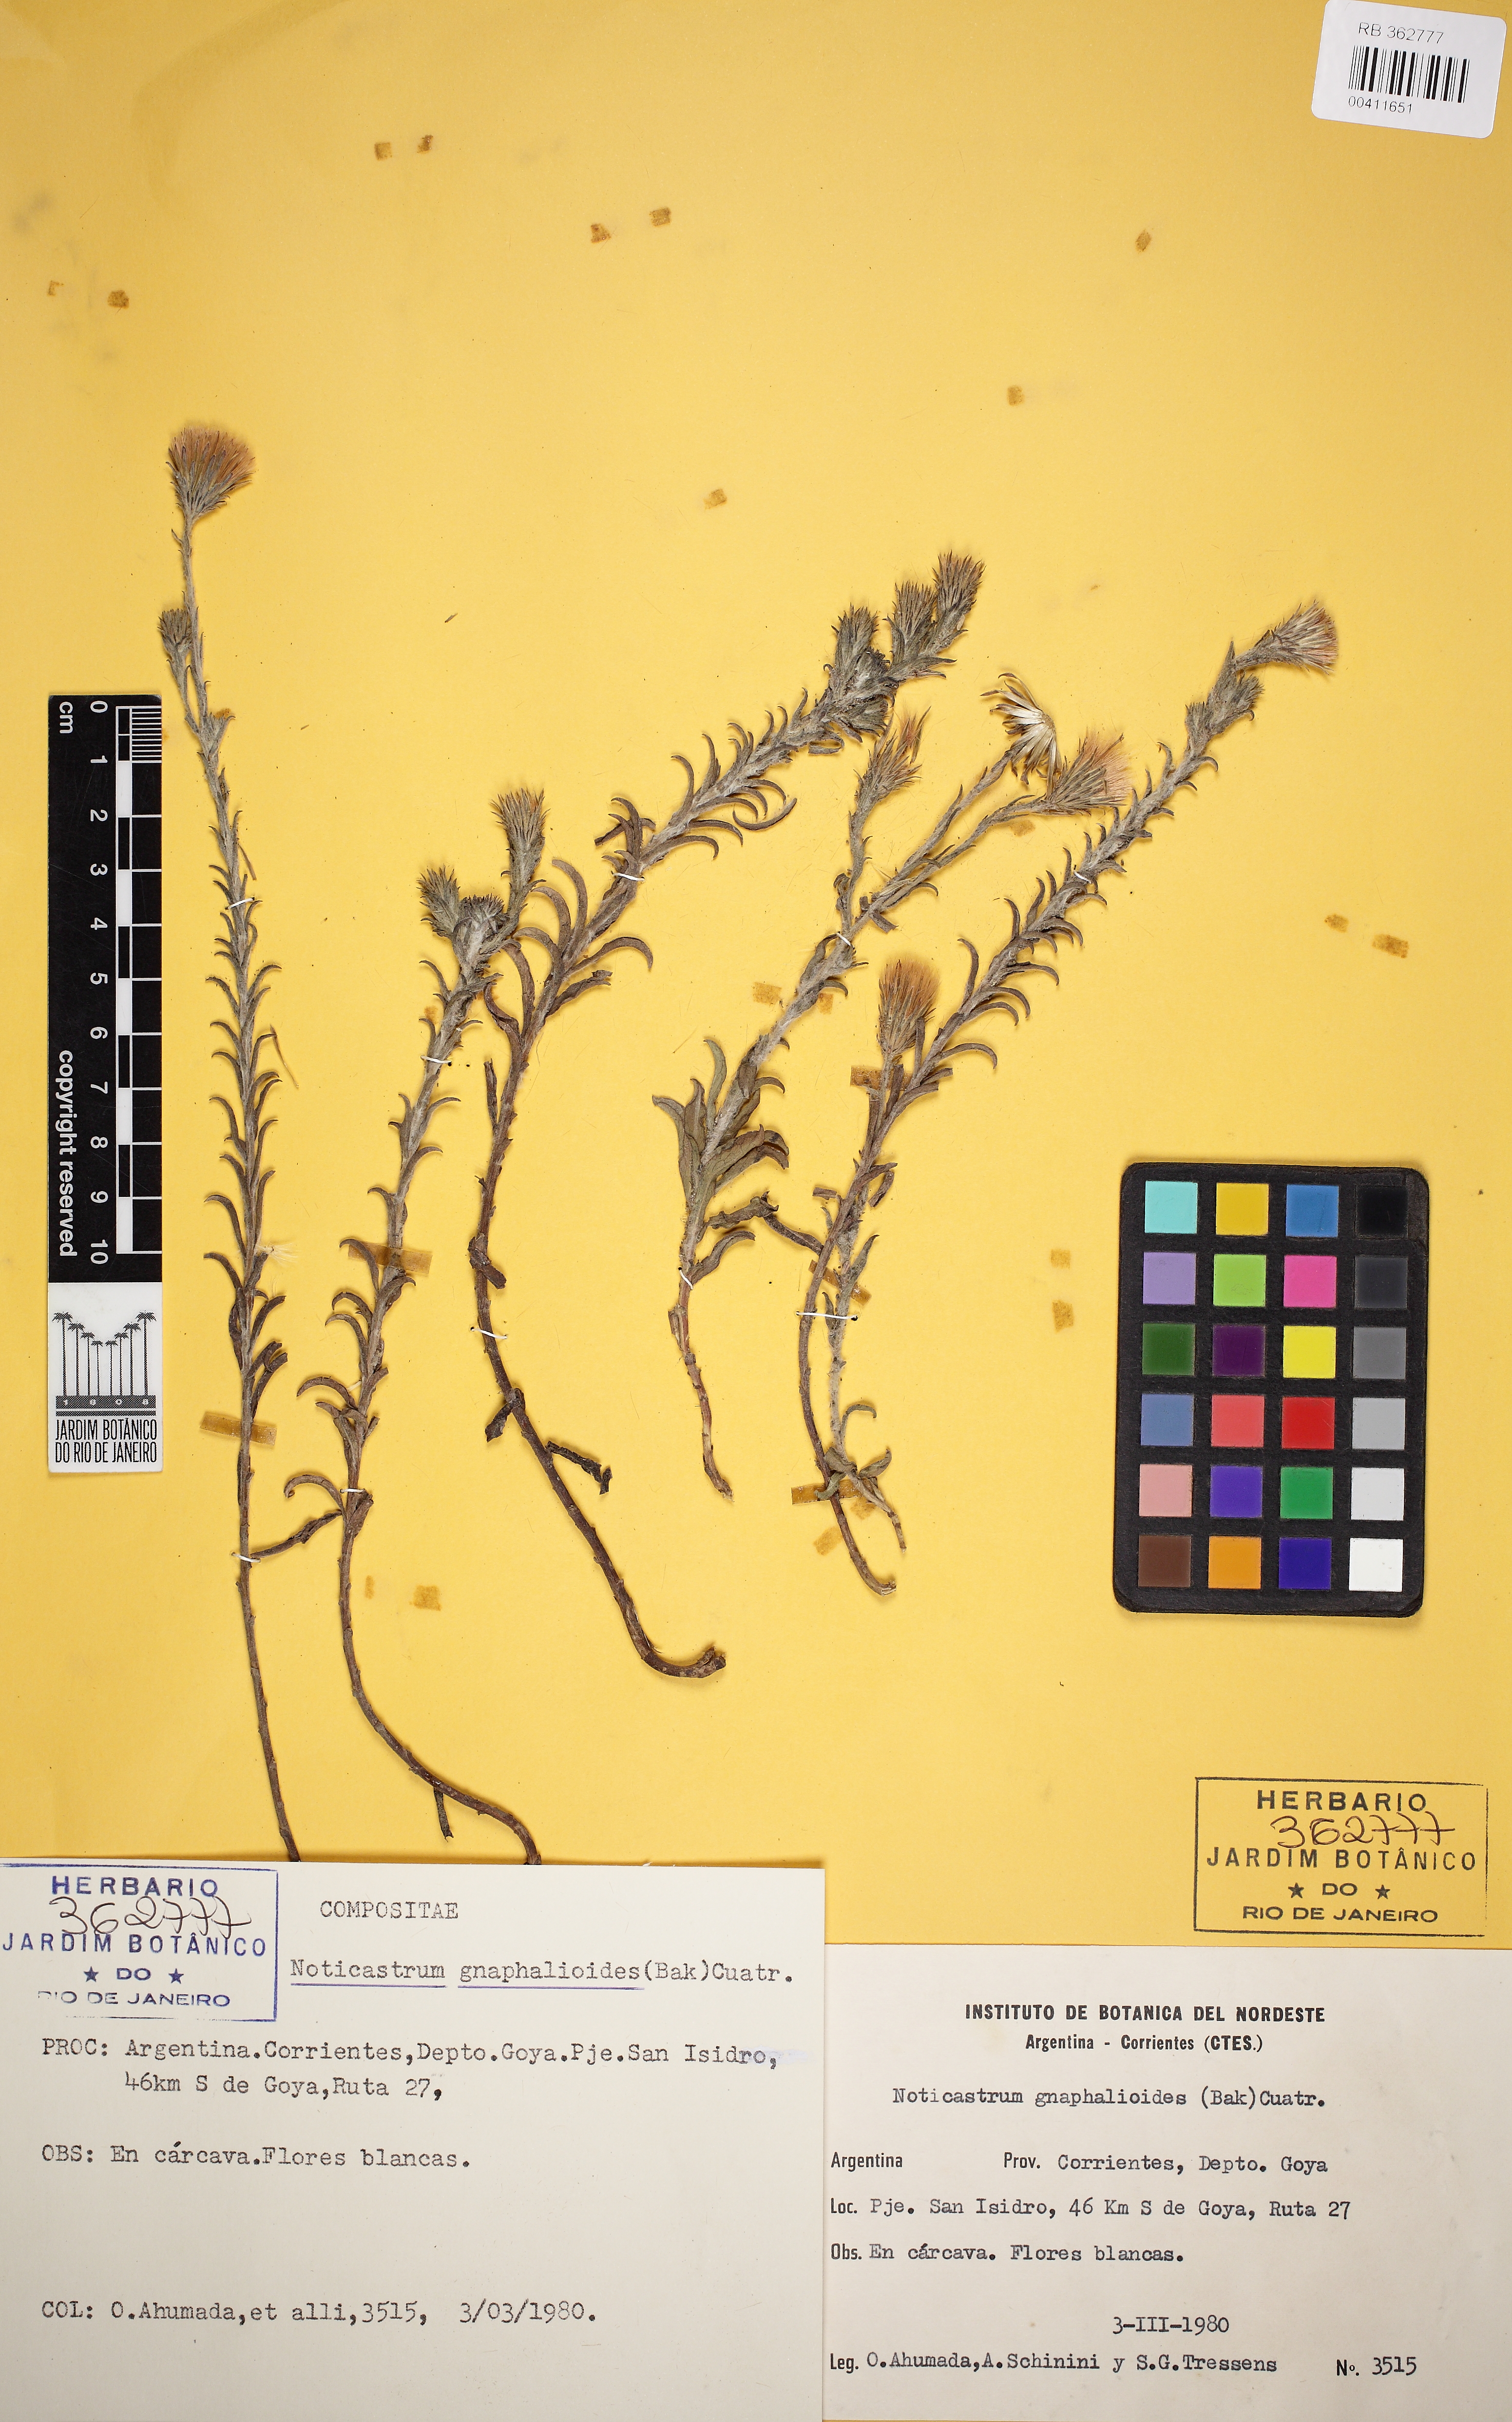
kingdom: Plantae
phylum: Tracheophyta
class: Magnoliopsida
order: Asterales
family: Asteraceae
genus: Noticastrum
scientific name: Noticastrum gnaphalioides
